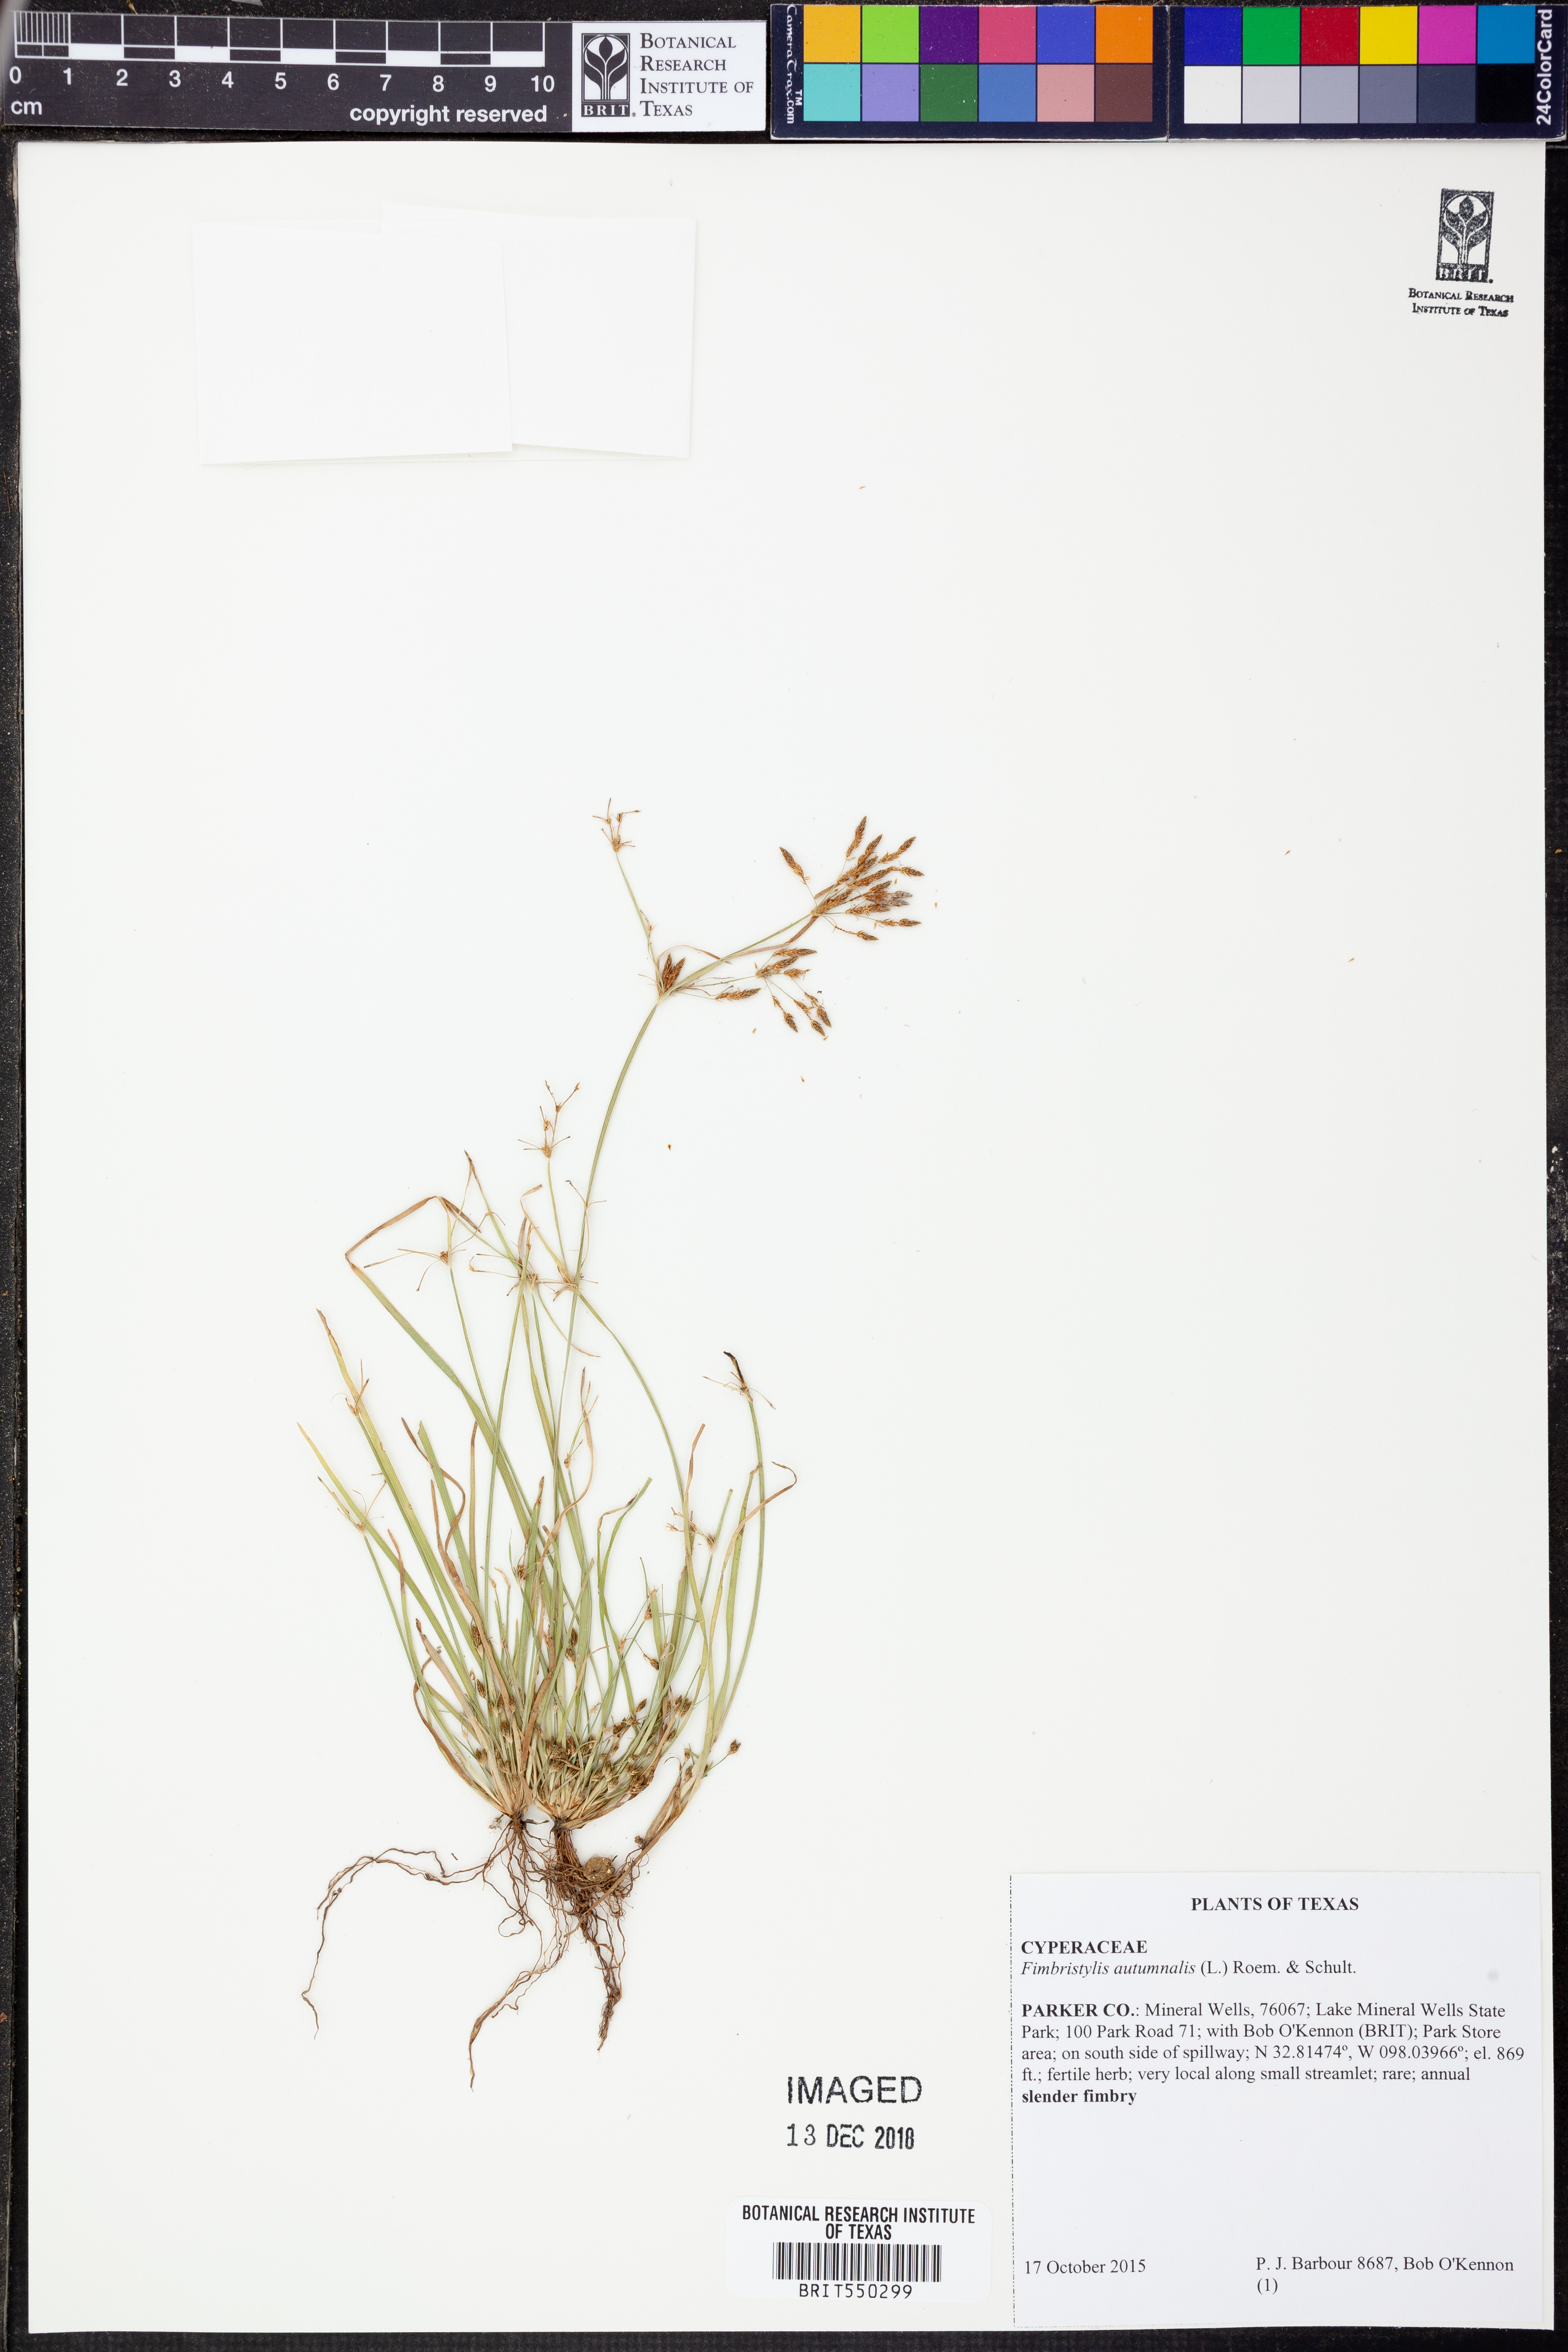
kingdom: Plantae
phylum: Tracheophyta
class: Liliopsida
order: Poales
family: Cyperaceae
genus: Fimbristylis
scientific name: Fimbristylis autumnalis
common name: Slender fimbristylis
